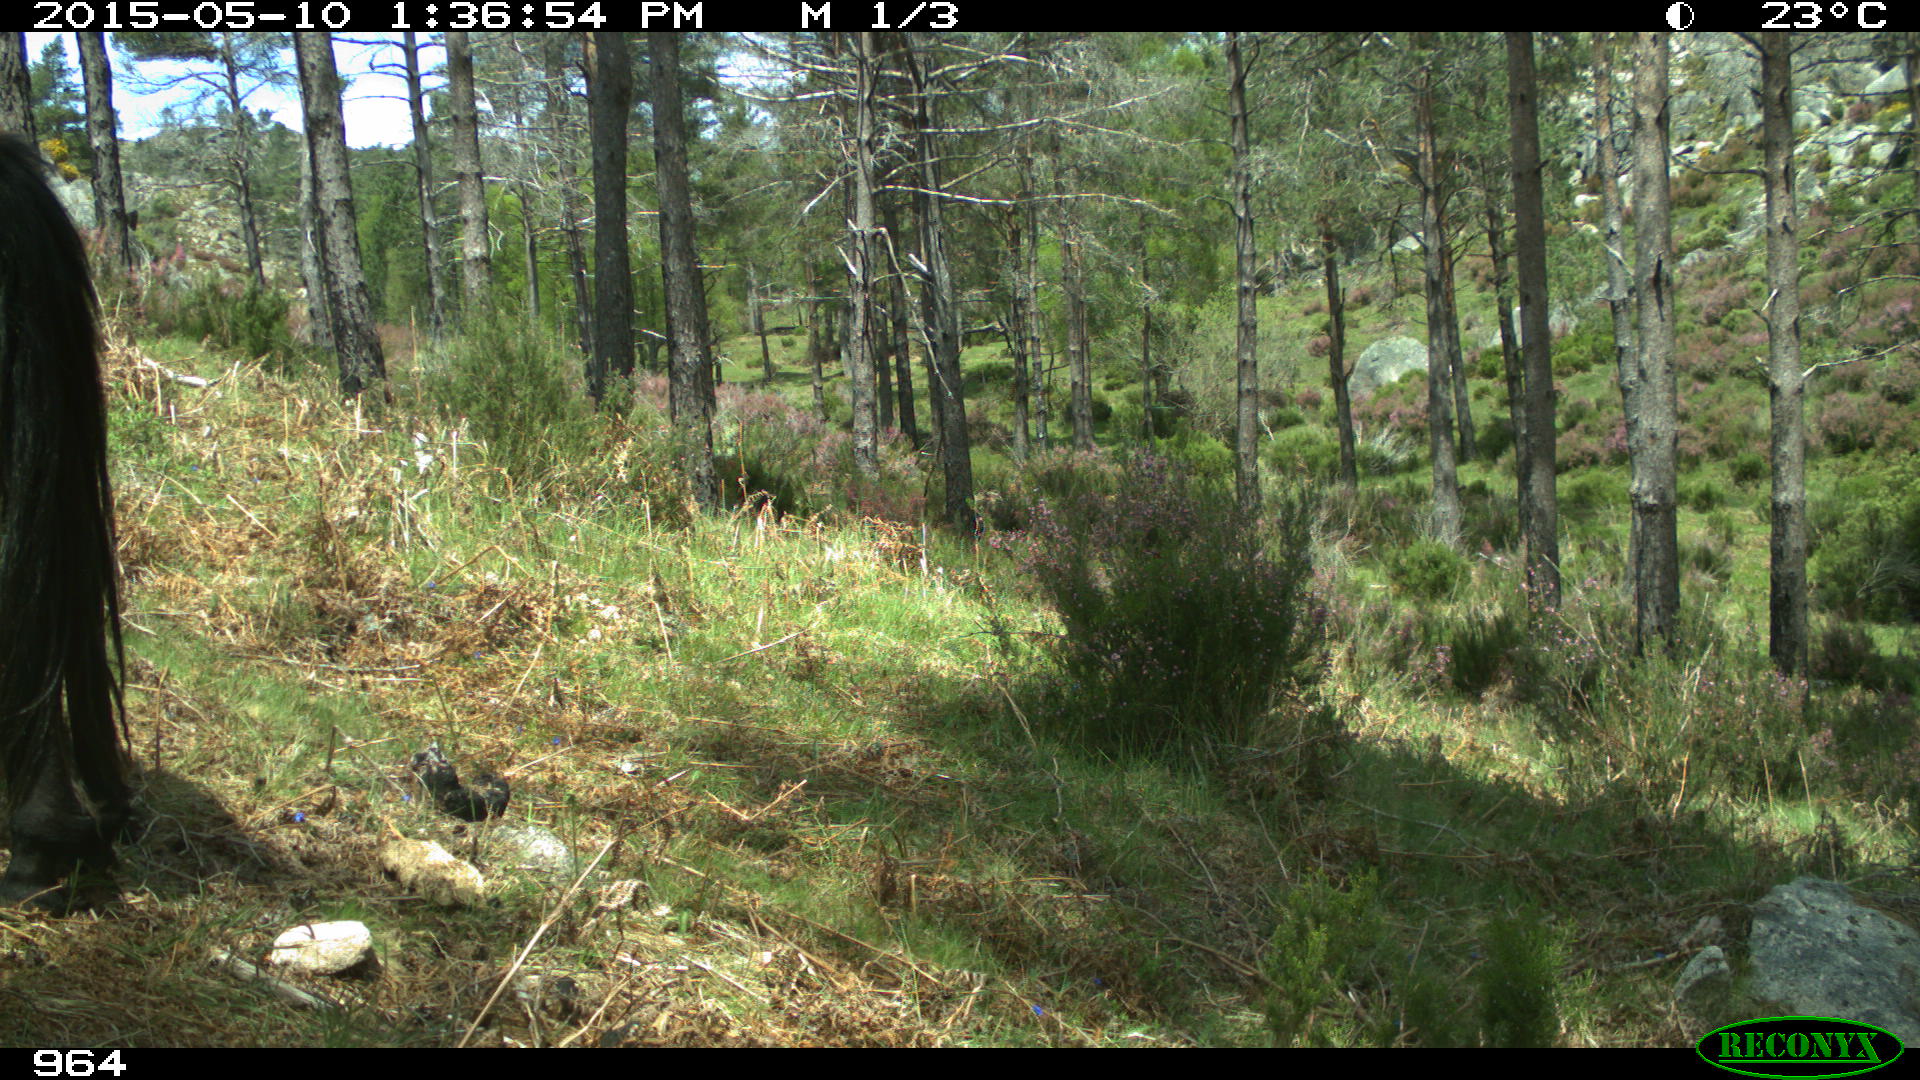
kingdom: Animalia
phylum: Chordata
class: Mammalia
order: Perissodactyla
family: Equidae
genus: Equus
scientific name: Equus caballus
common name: Horse
